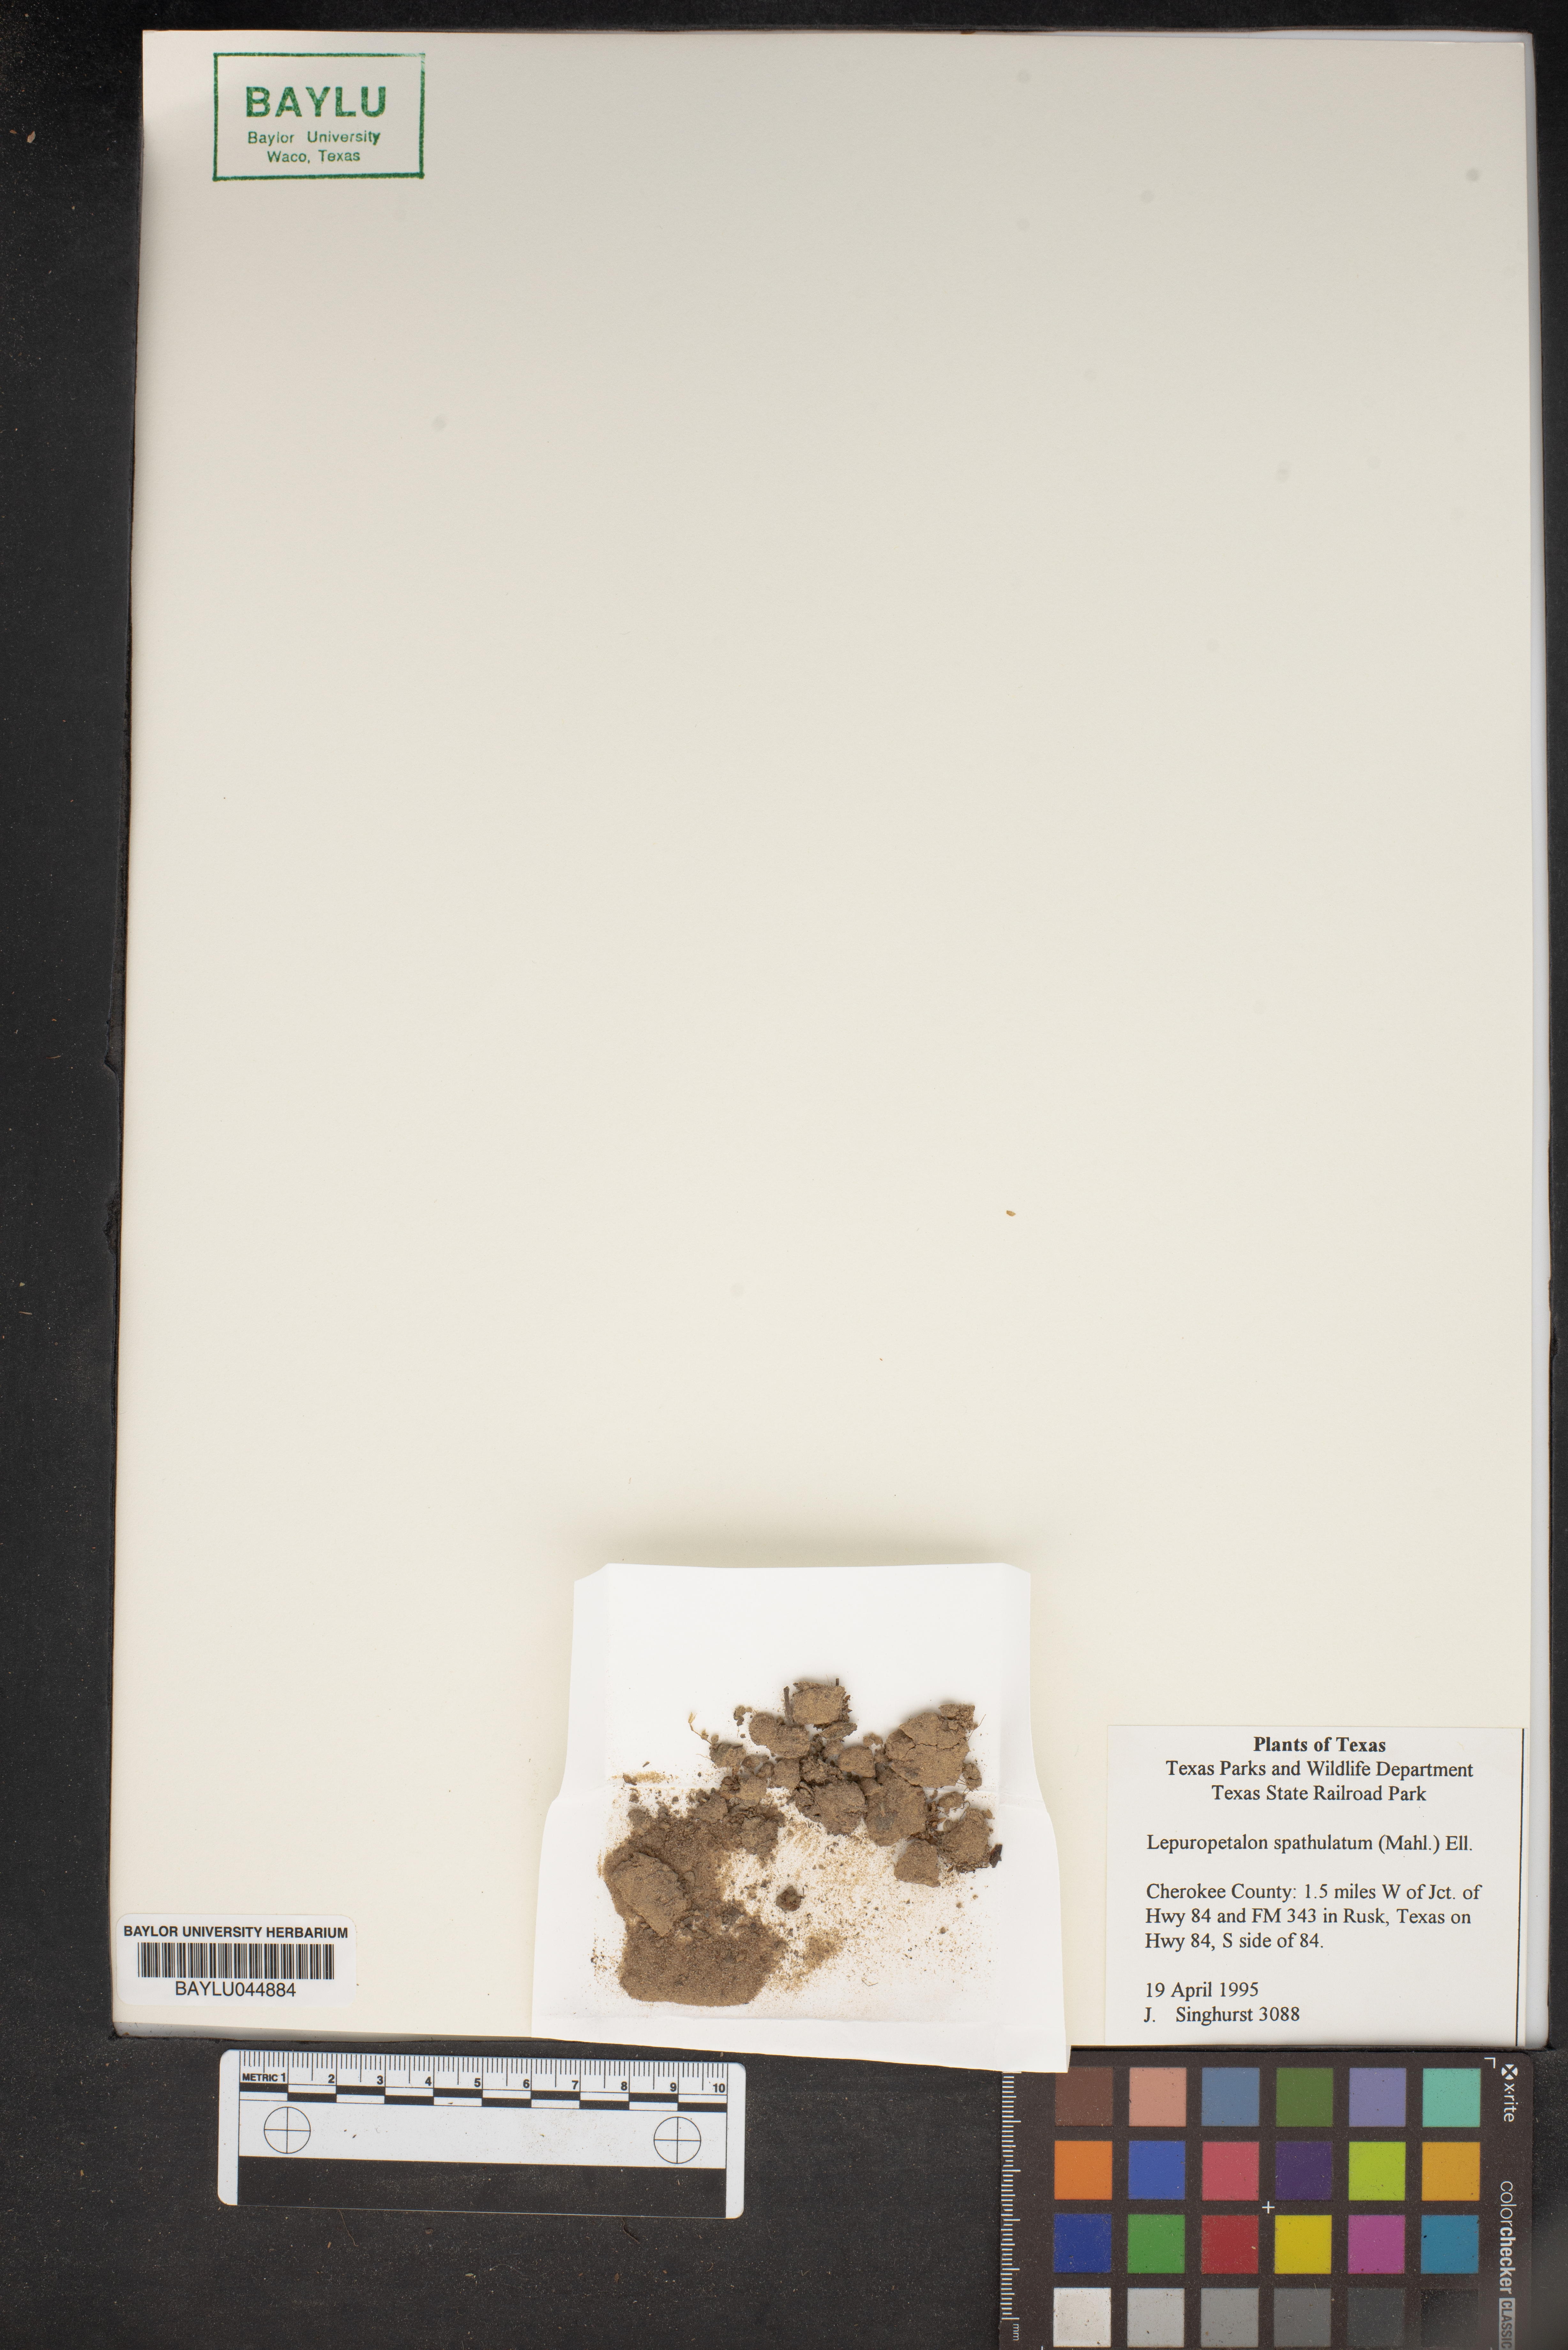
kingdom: Plantae
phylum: Tracheophyta
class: Magnoliopsida
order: Celastrales
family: Parnassiaceae
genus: Lepuropetalon
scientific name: Lepuropetalon spathulatum
